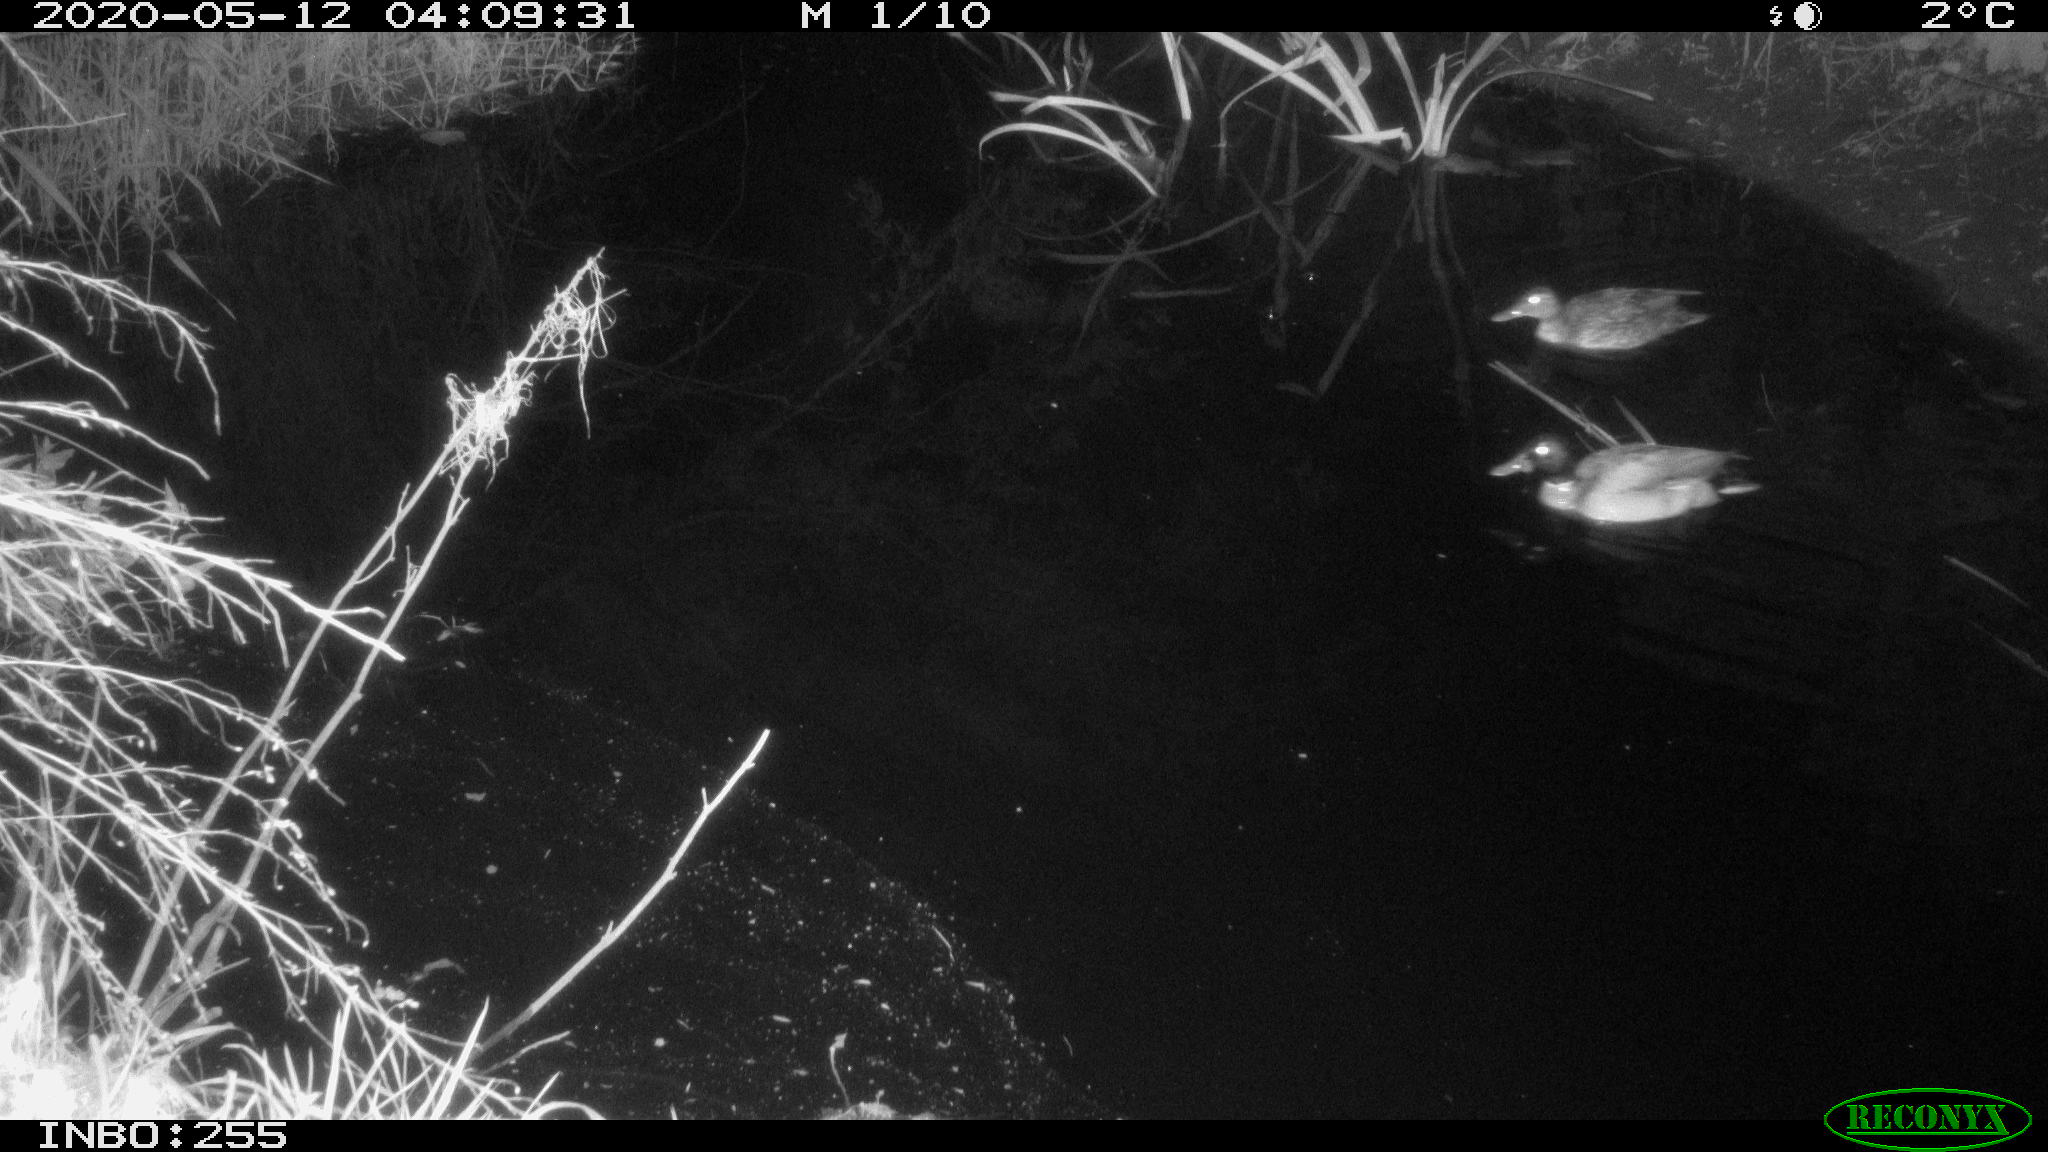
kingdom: Animalia
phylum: Chordata
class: Aves
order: Anseriformes
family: Anatidae
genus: Anas
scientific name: Anas platyrhynchos
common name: Mallard
